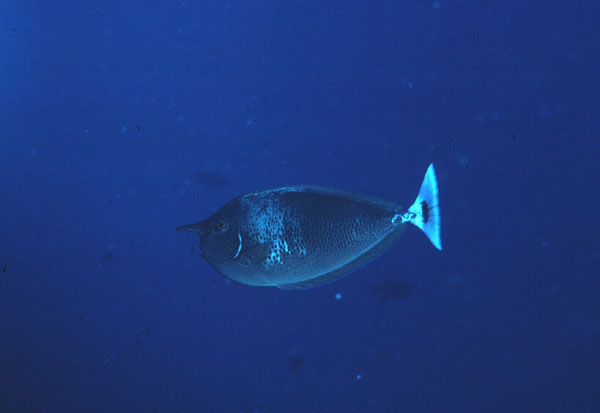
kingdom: Animalia
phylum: Chordata
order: Perciformes
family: Acanthuridae
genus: Naso
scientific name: Naso brevirostris
